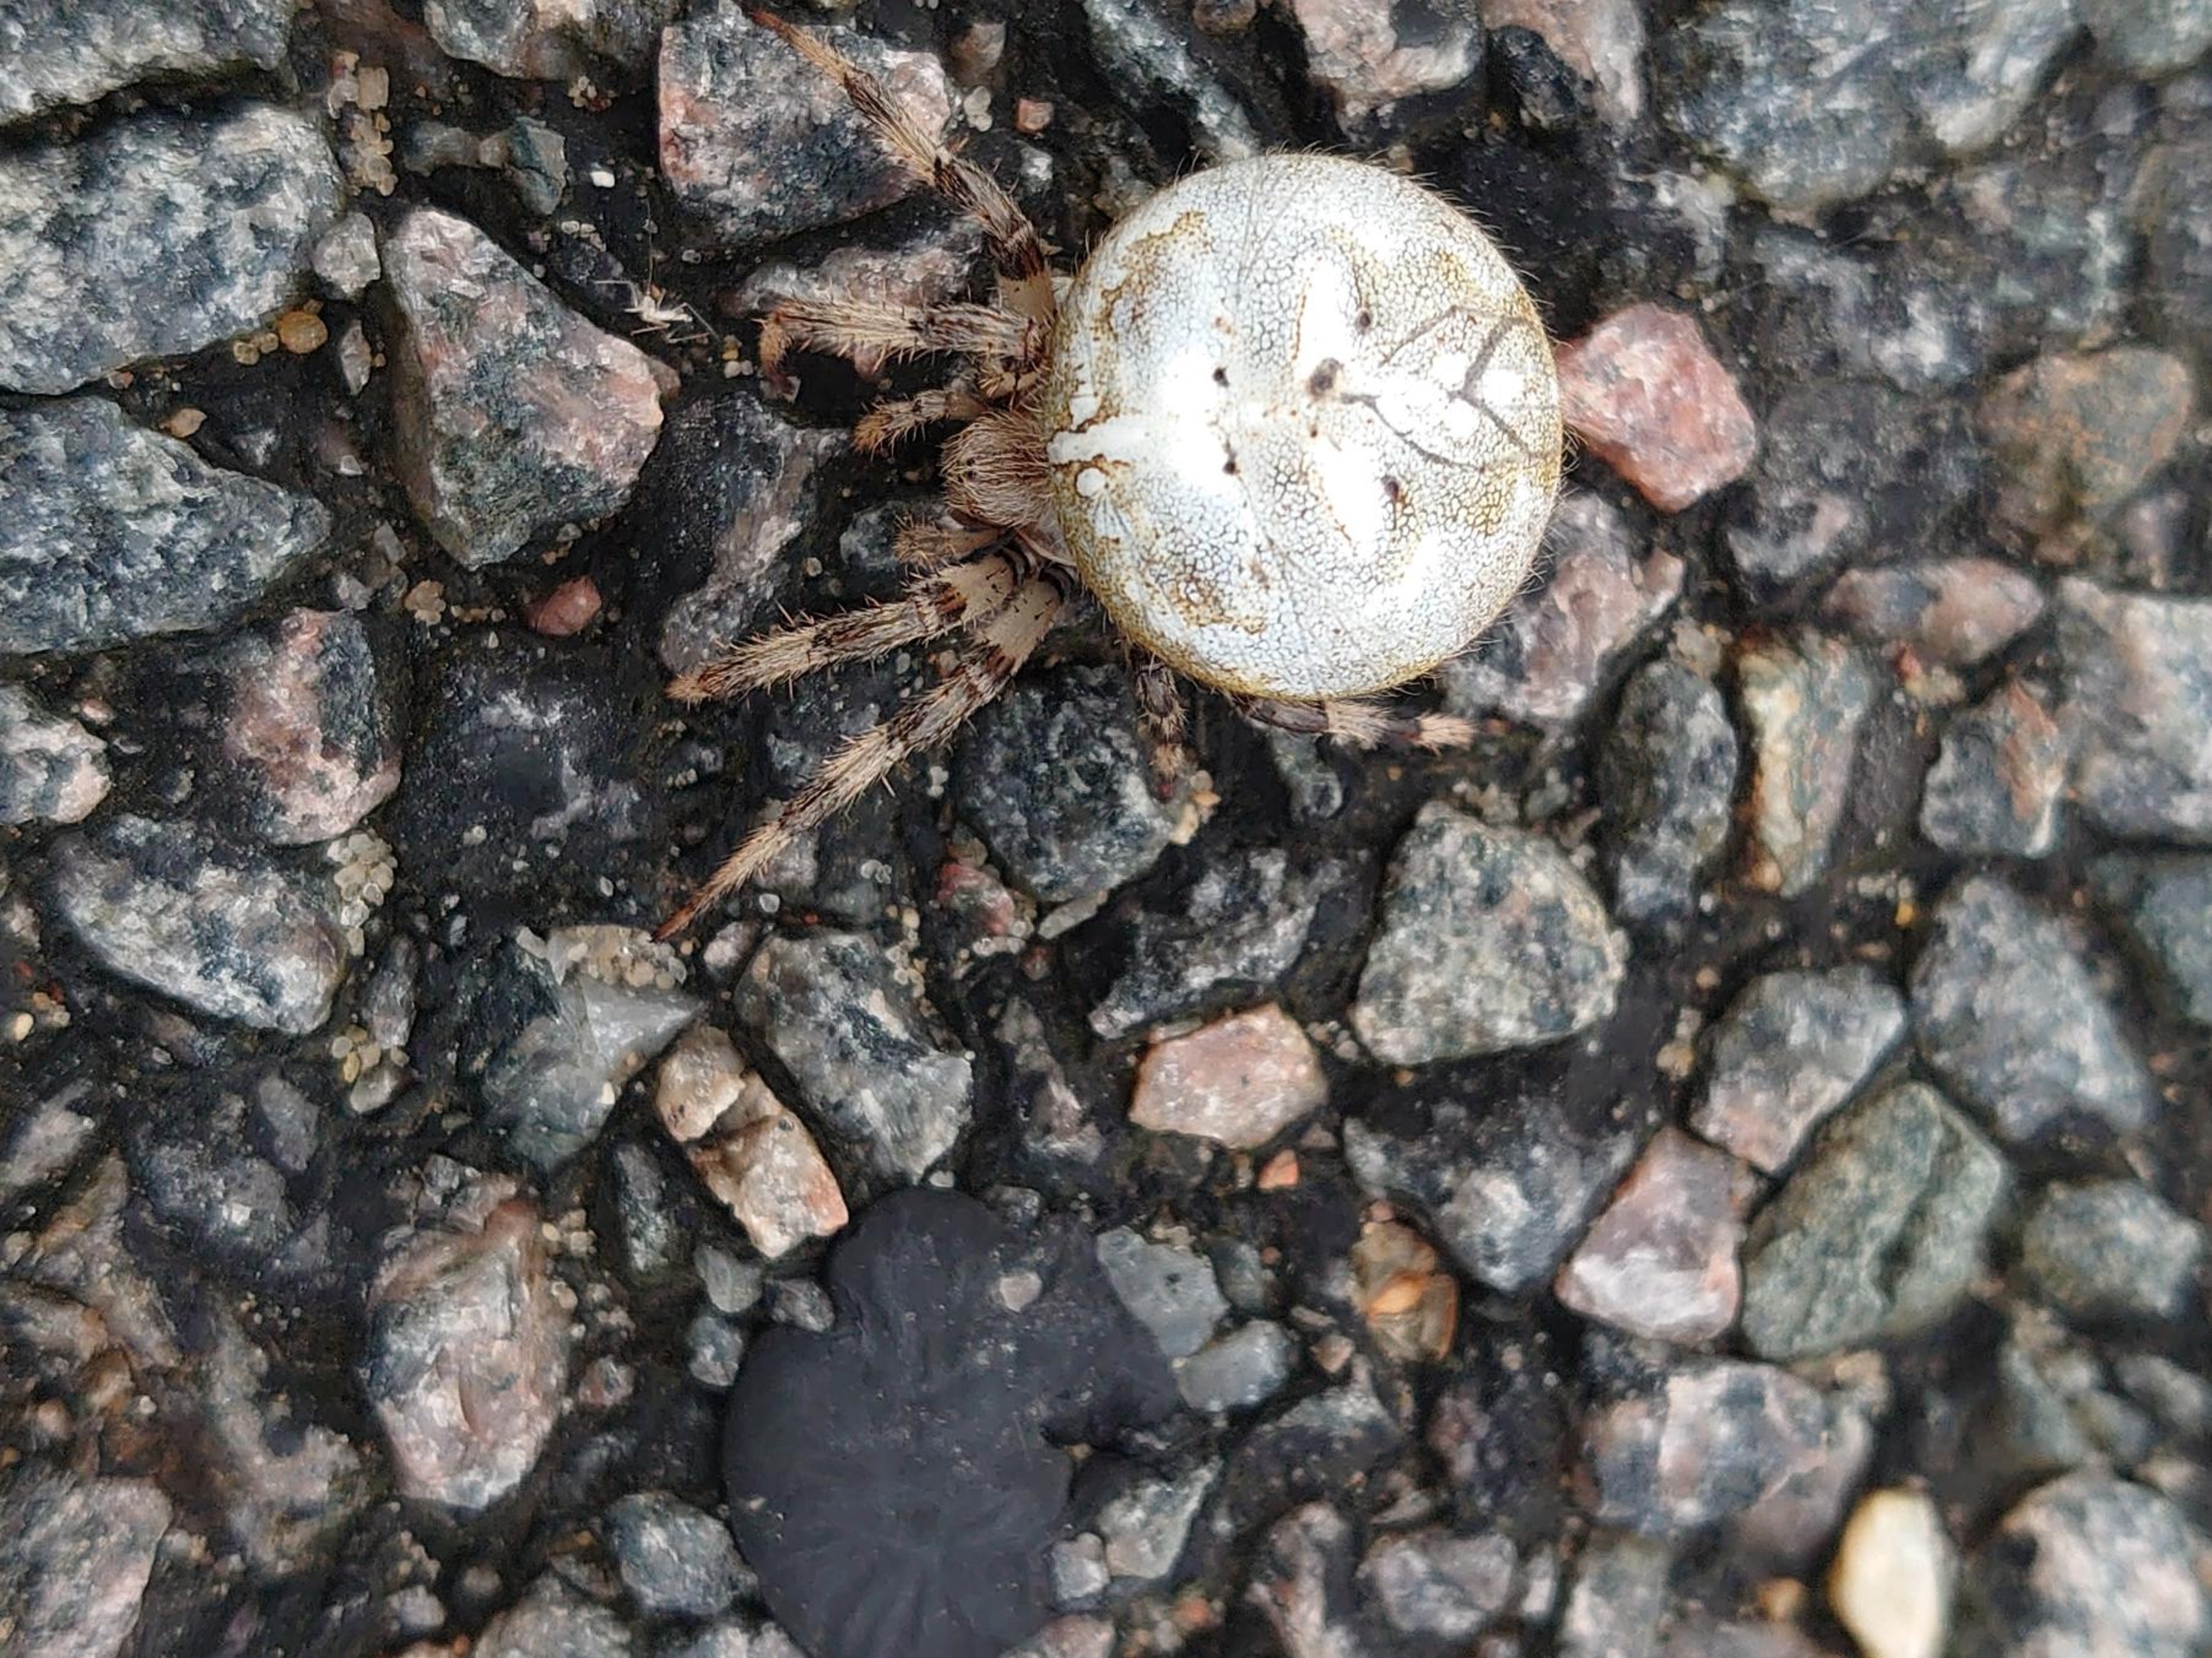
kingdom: Animalia
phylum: Arthropoda
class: Arachnida
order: Araneae
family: Araneidae
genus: Araneus
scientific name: Araneus quadratus
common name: Kvadratedderkop
